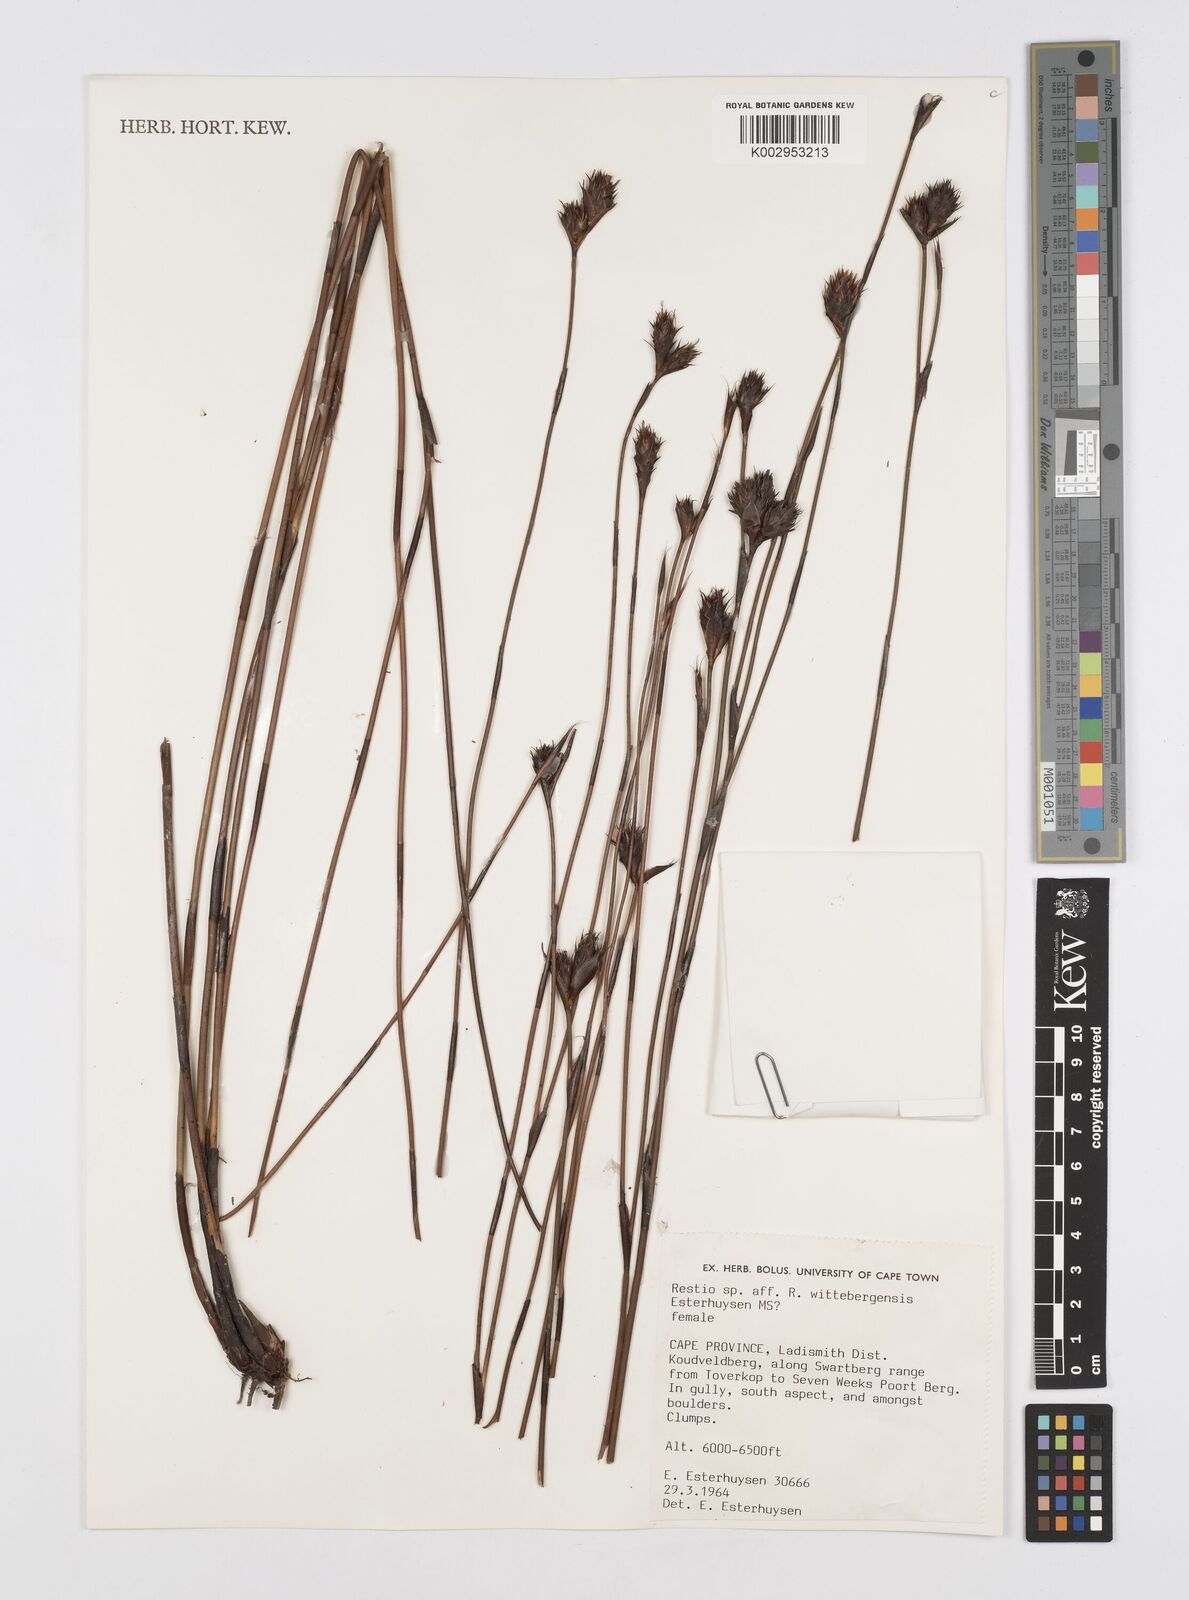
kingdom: Plantae
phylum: Tracheophyta
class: Liliopsida
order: Poales
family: Restionaceae
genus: Restio
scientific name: Restio
